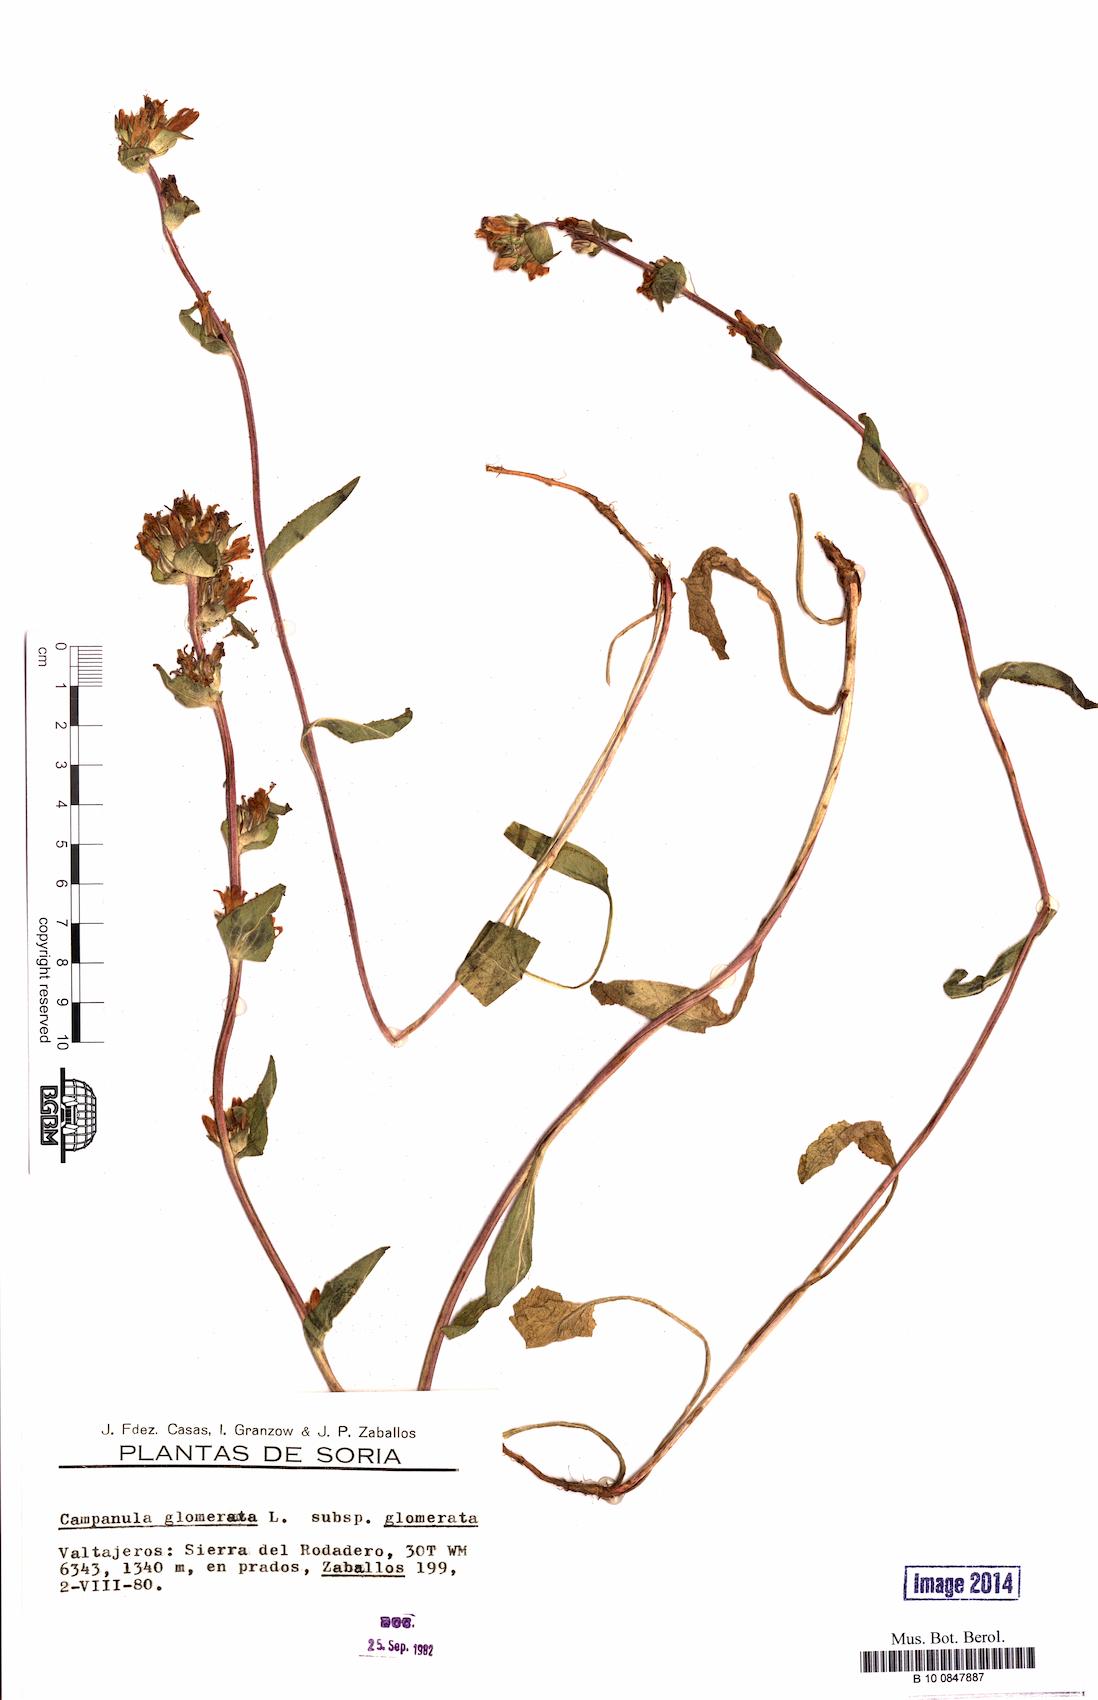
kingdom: Plantae
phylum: Tracheophyta
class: Magnoliopsida
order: Asterales
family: Campanulaceae
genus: Campanula
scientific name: Campanula glomerata
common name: Clustered bellflower
